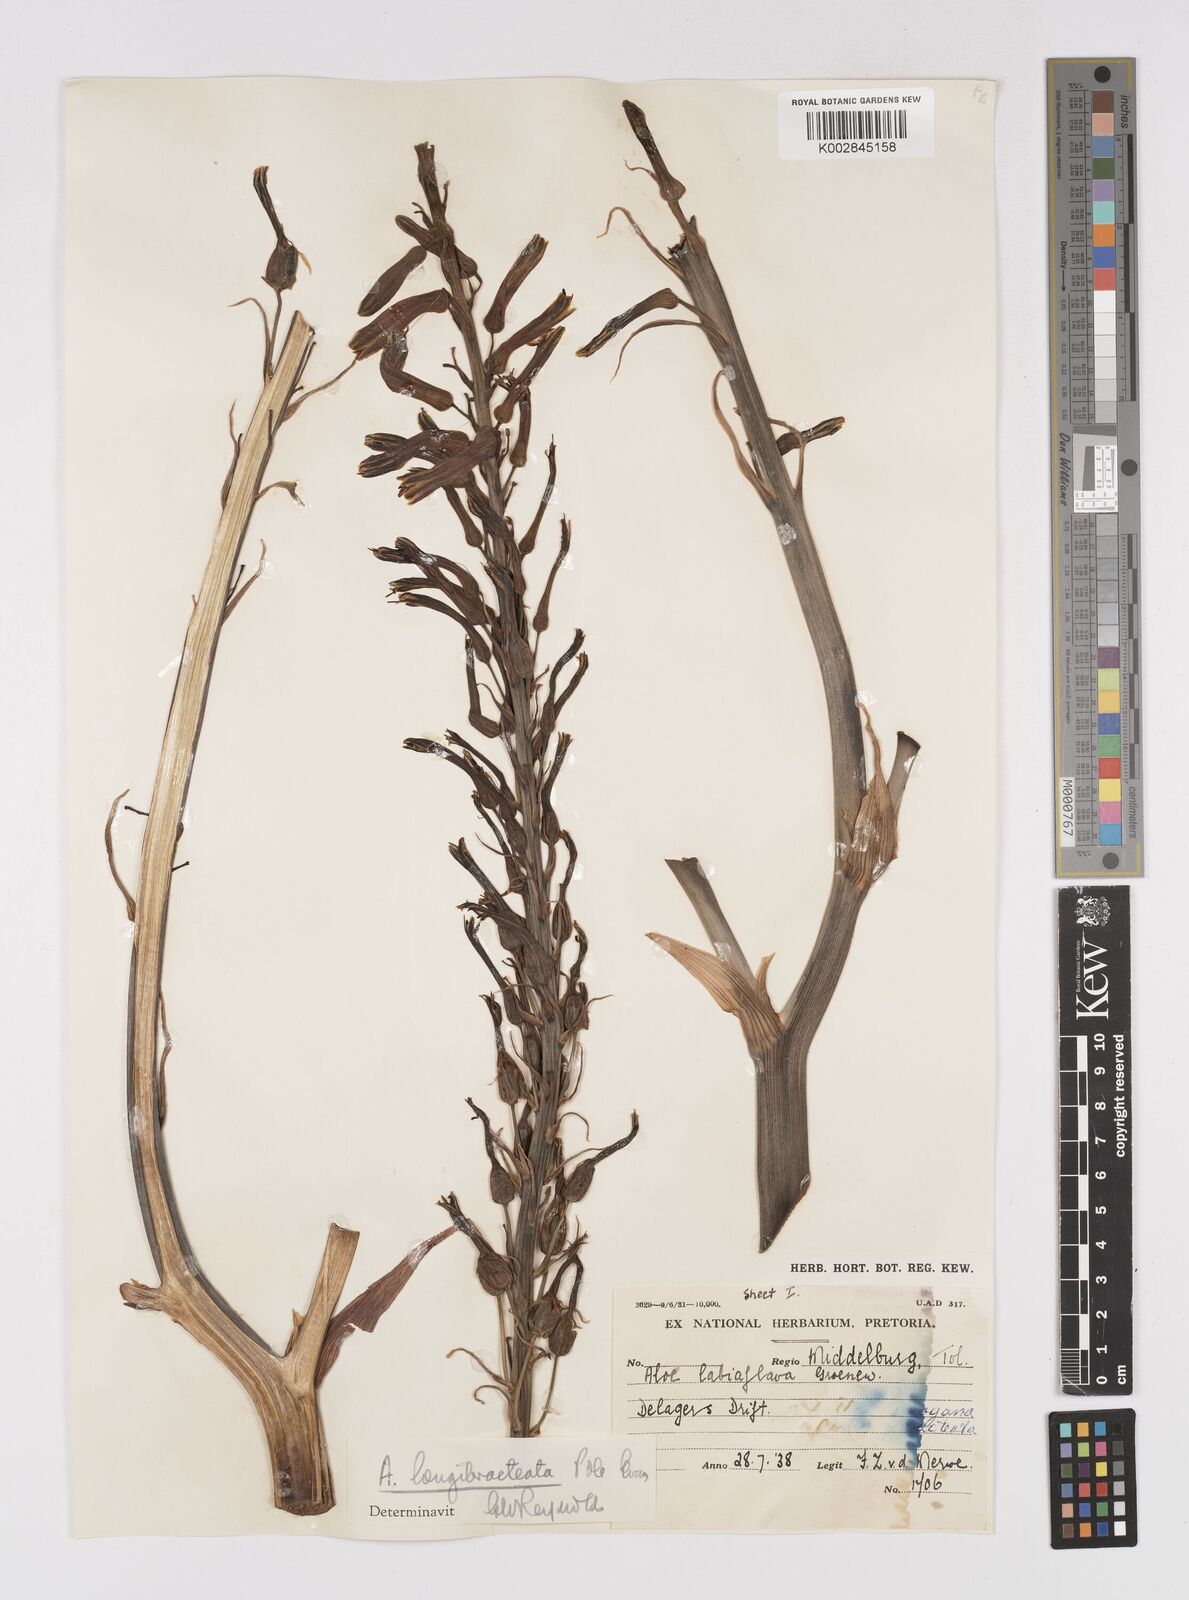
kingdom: Plantae
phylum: Tracheophyta
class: Liliopsida
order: Asparagales
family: Asphodelaceae
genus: Aloe
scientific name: Aloe longibracteata
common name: Limpopo spotted aloe
